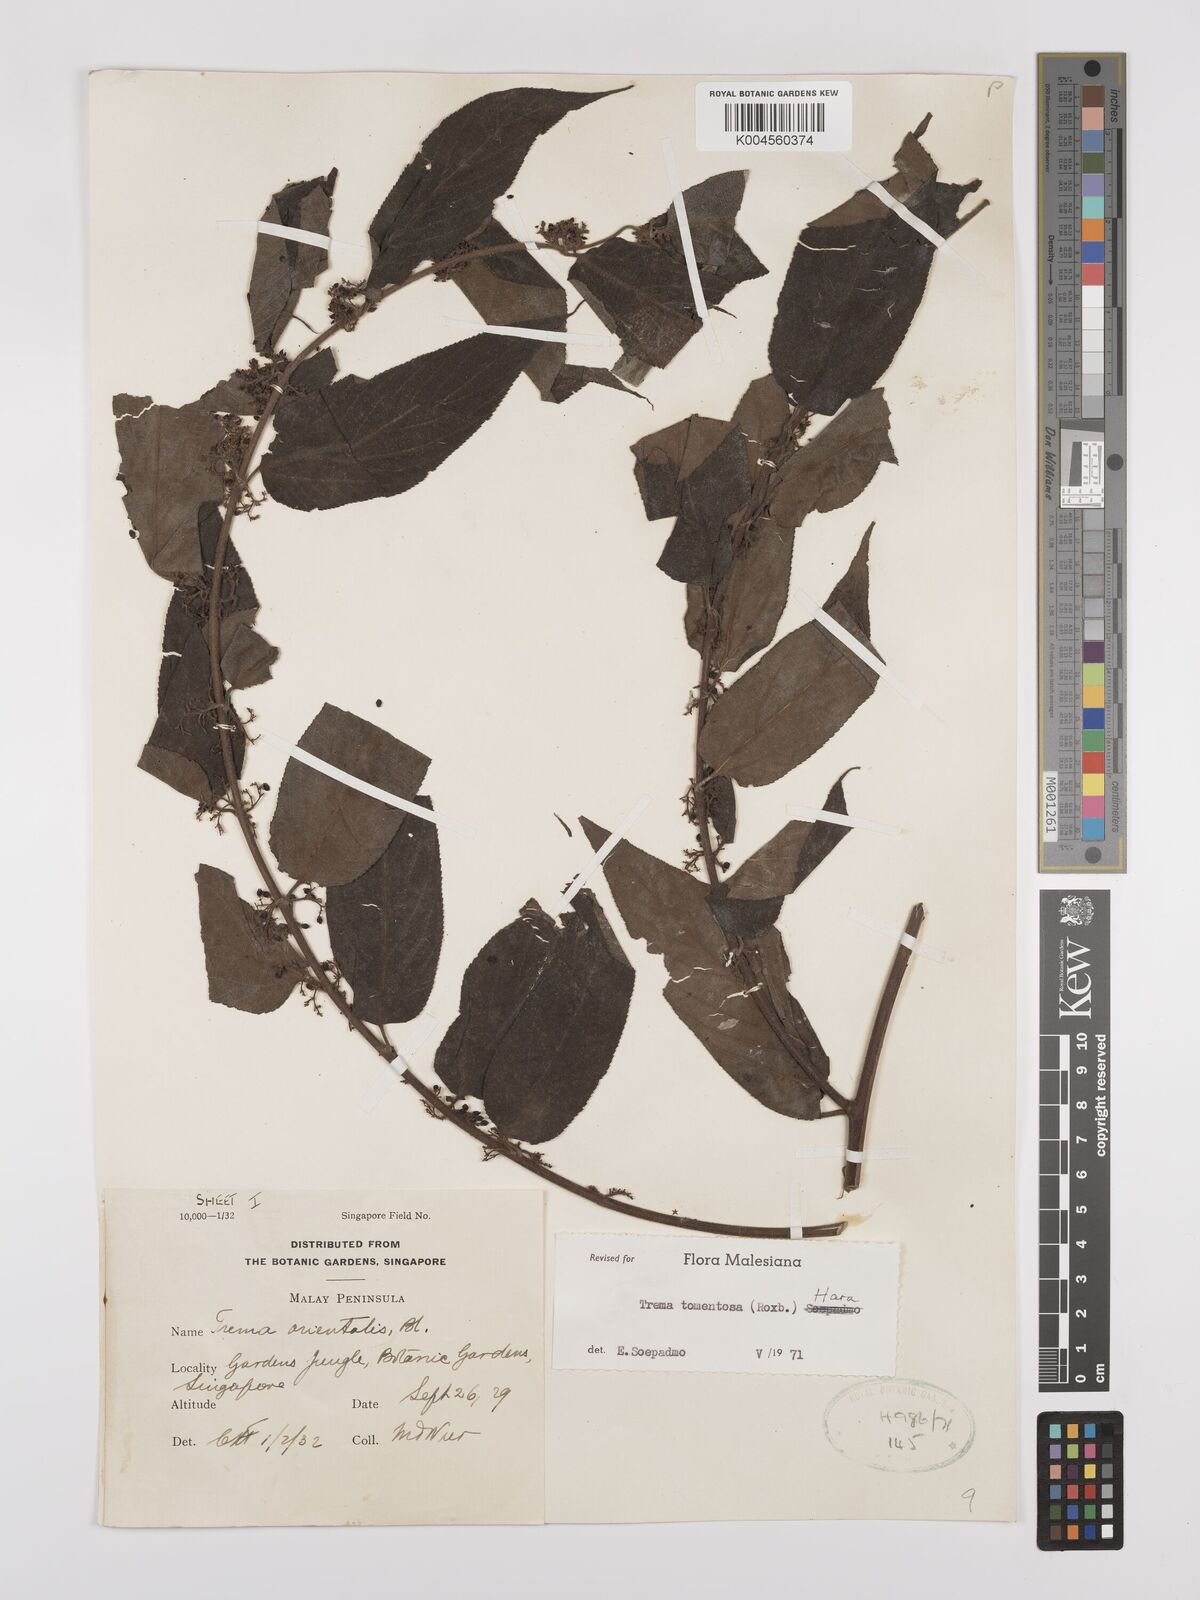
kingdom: Plantae
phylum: Tracheophyta
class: Magnoliopsida
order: Rosales
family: Cannabaceae
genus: Trema
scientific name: Trema tomentosum
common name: Peach-leaf-poisonbush
